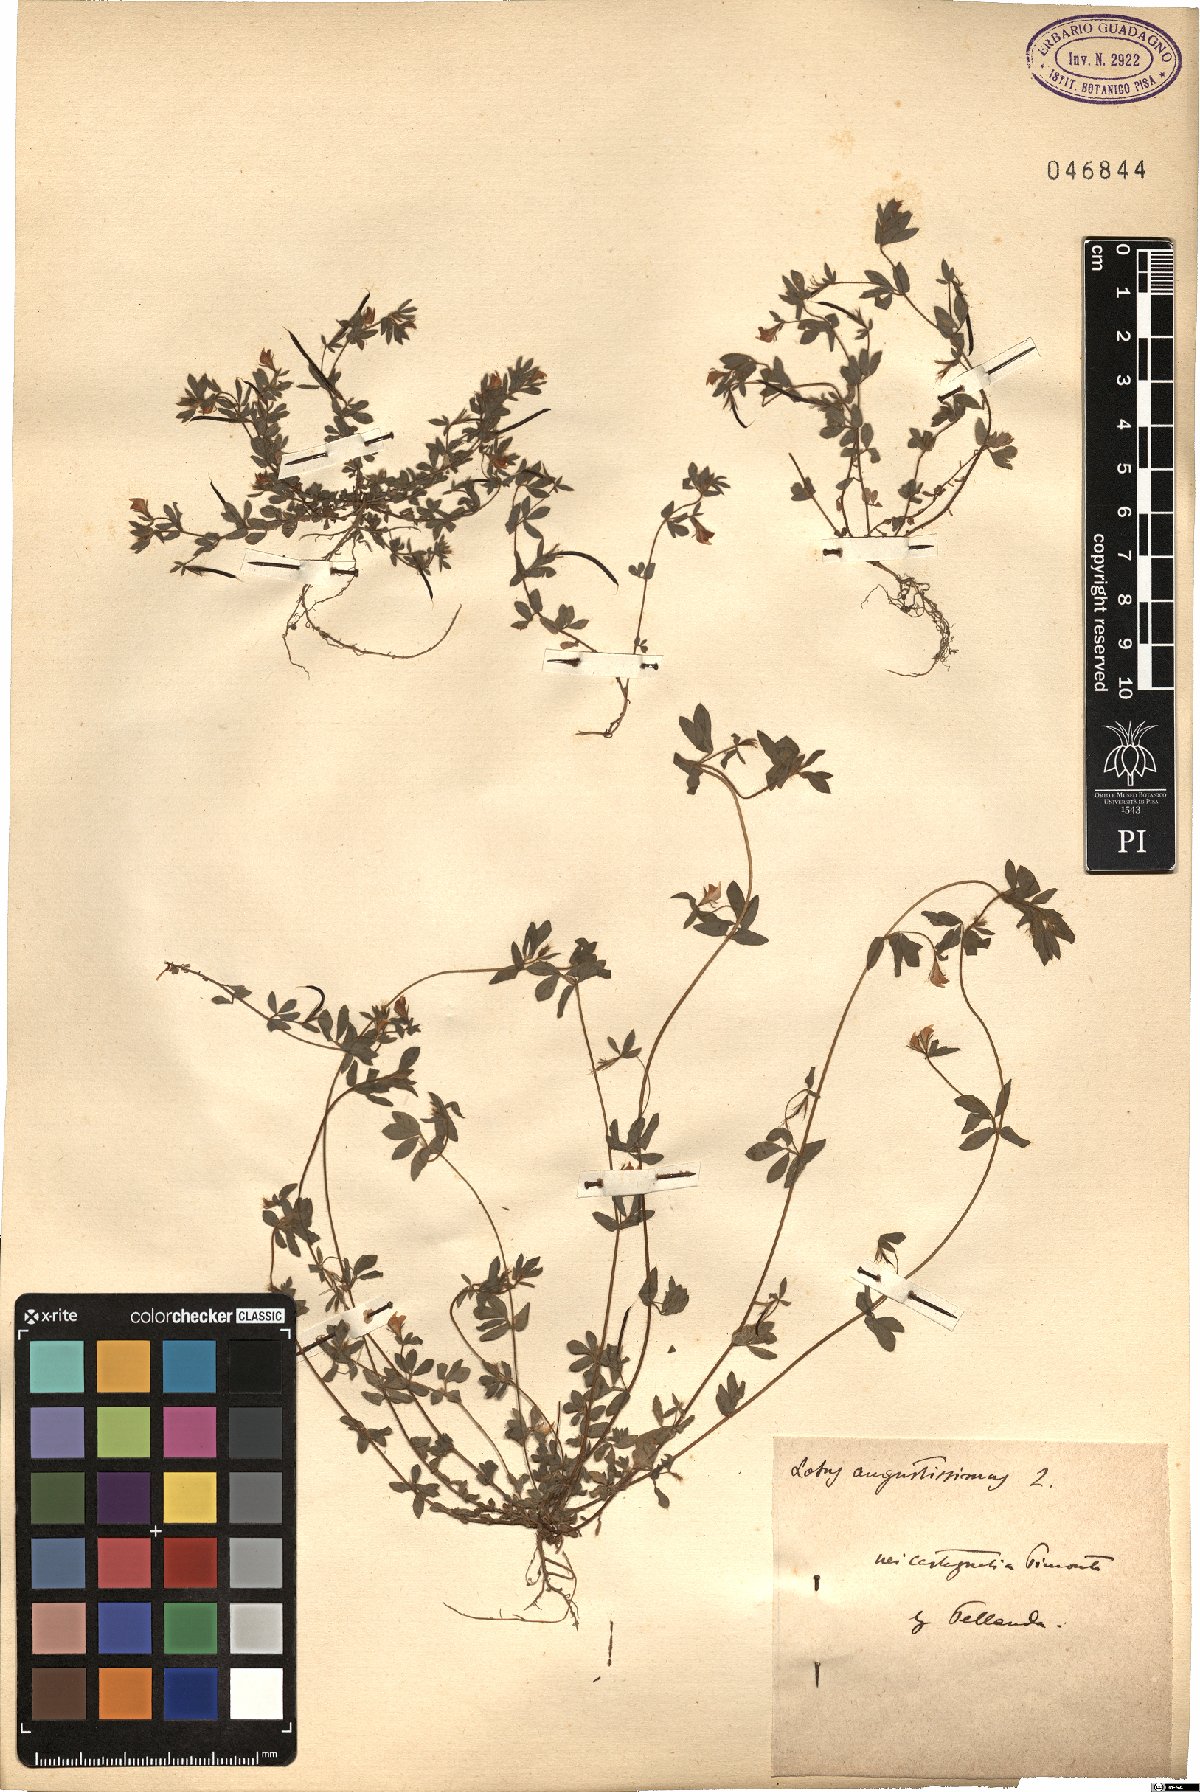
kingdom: Plantae
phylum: Tracheophyta
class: Magnoliopsida
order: Fabales
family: Fabaceae
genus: Lotus
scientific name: Lotus angustissimus
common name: Slender bird's-foot trefoil
